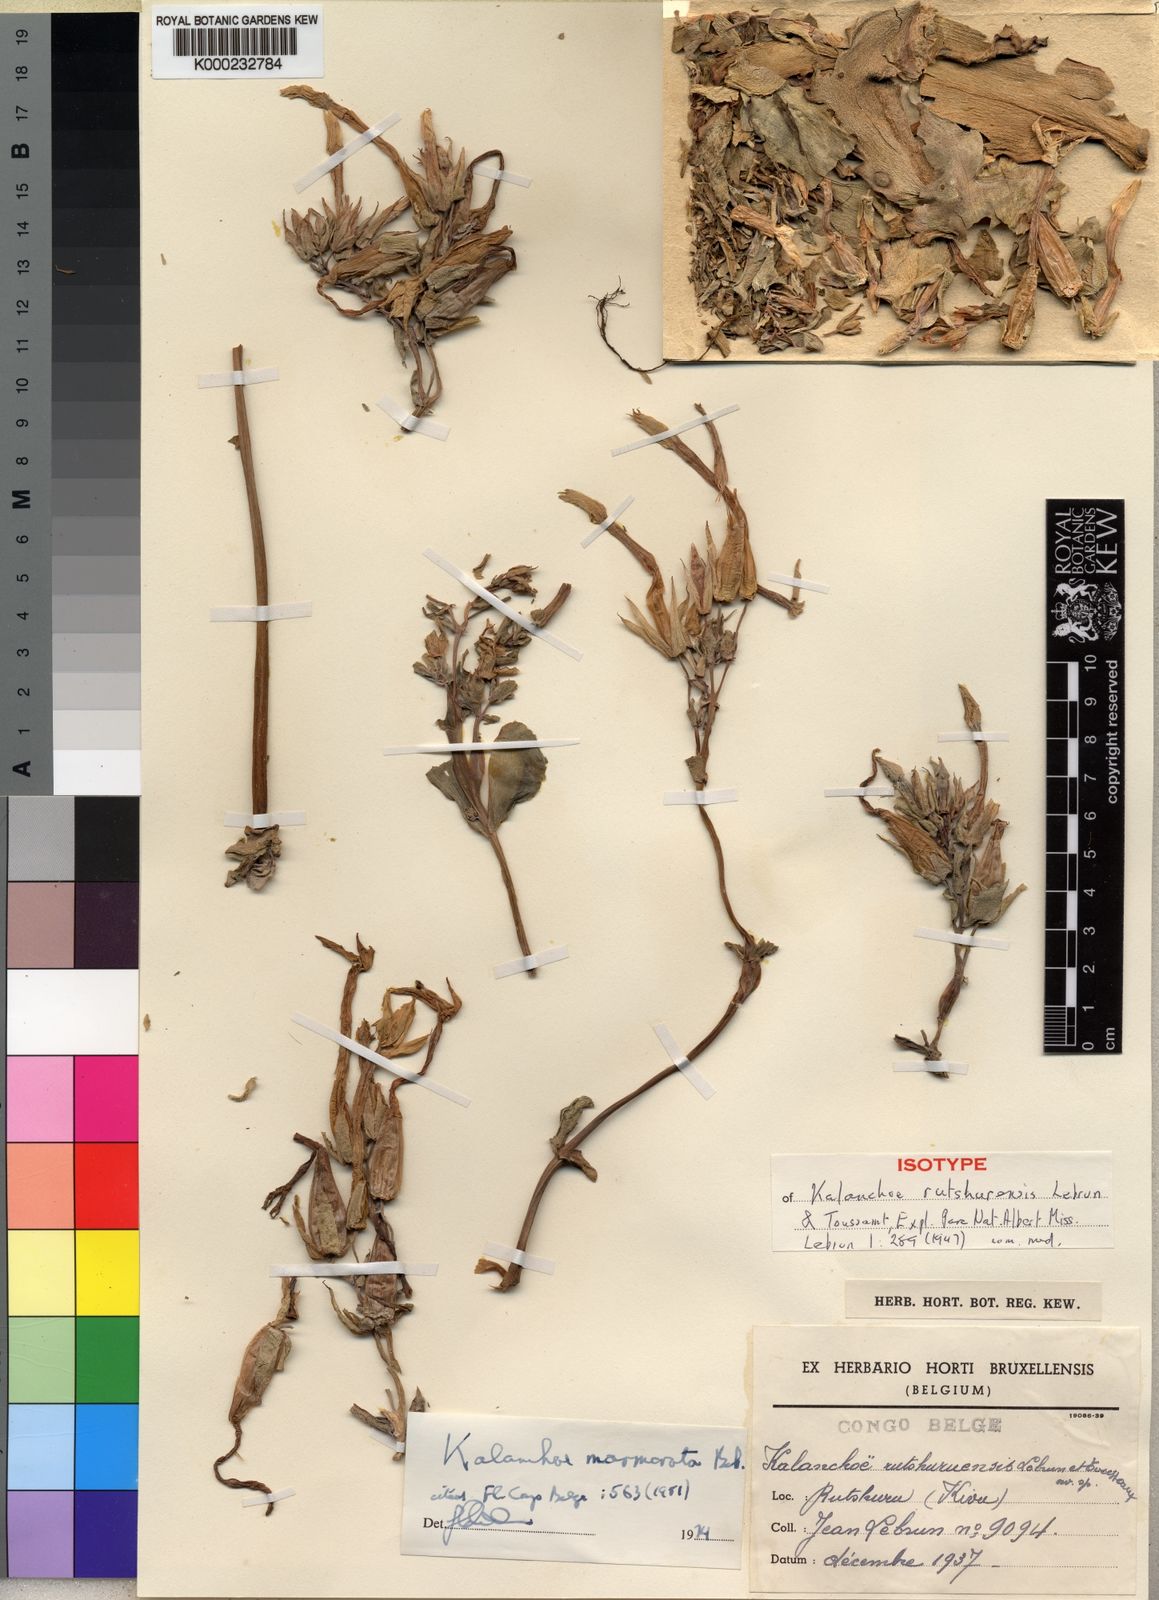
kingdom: Plantae
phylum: Tracheophyta
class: Magnoliopsida
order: Saxifragales
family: Crassulaceae
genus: Kalanchoe
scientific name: Kalanchoe marmorata
